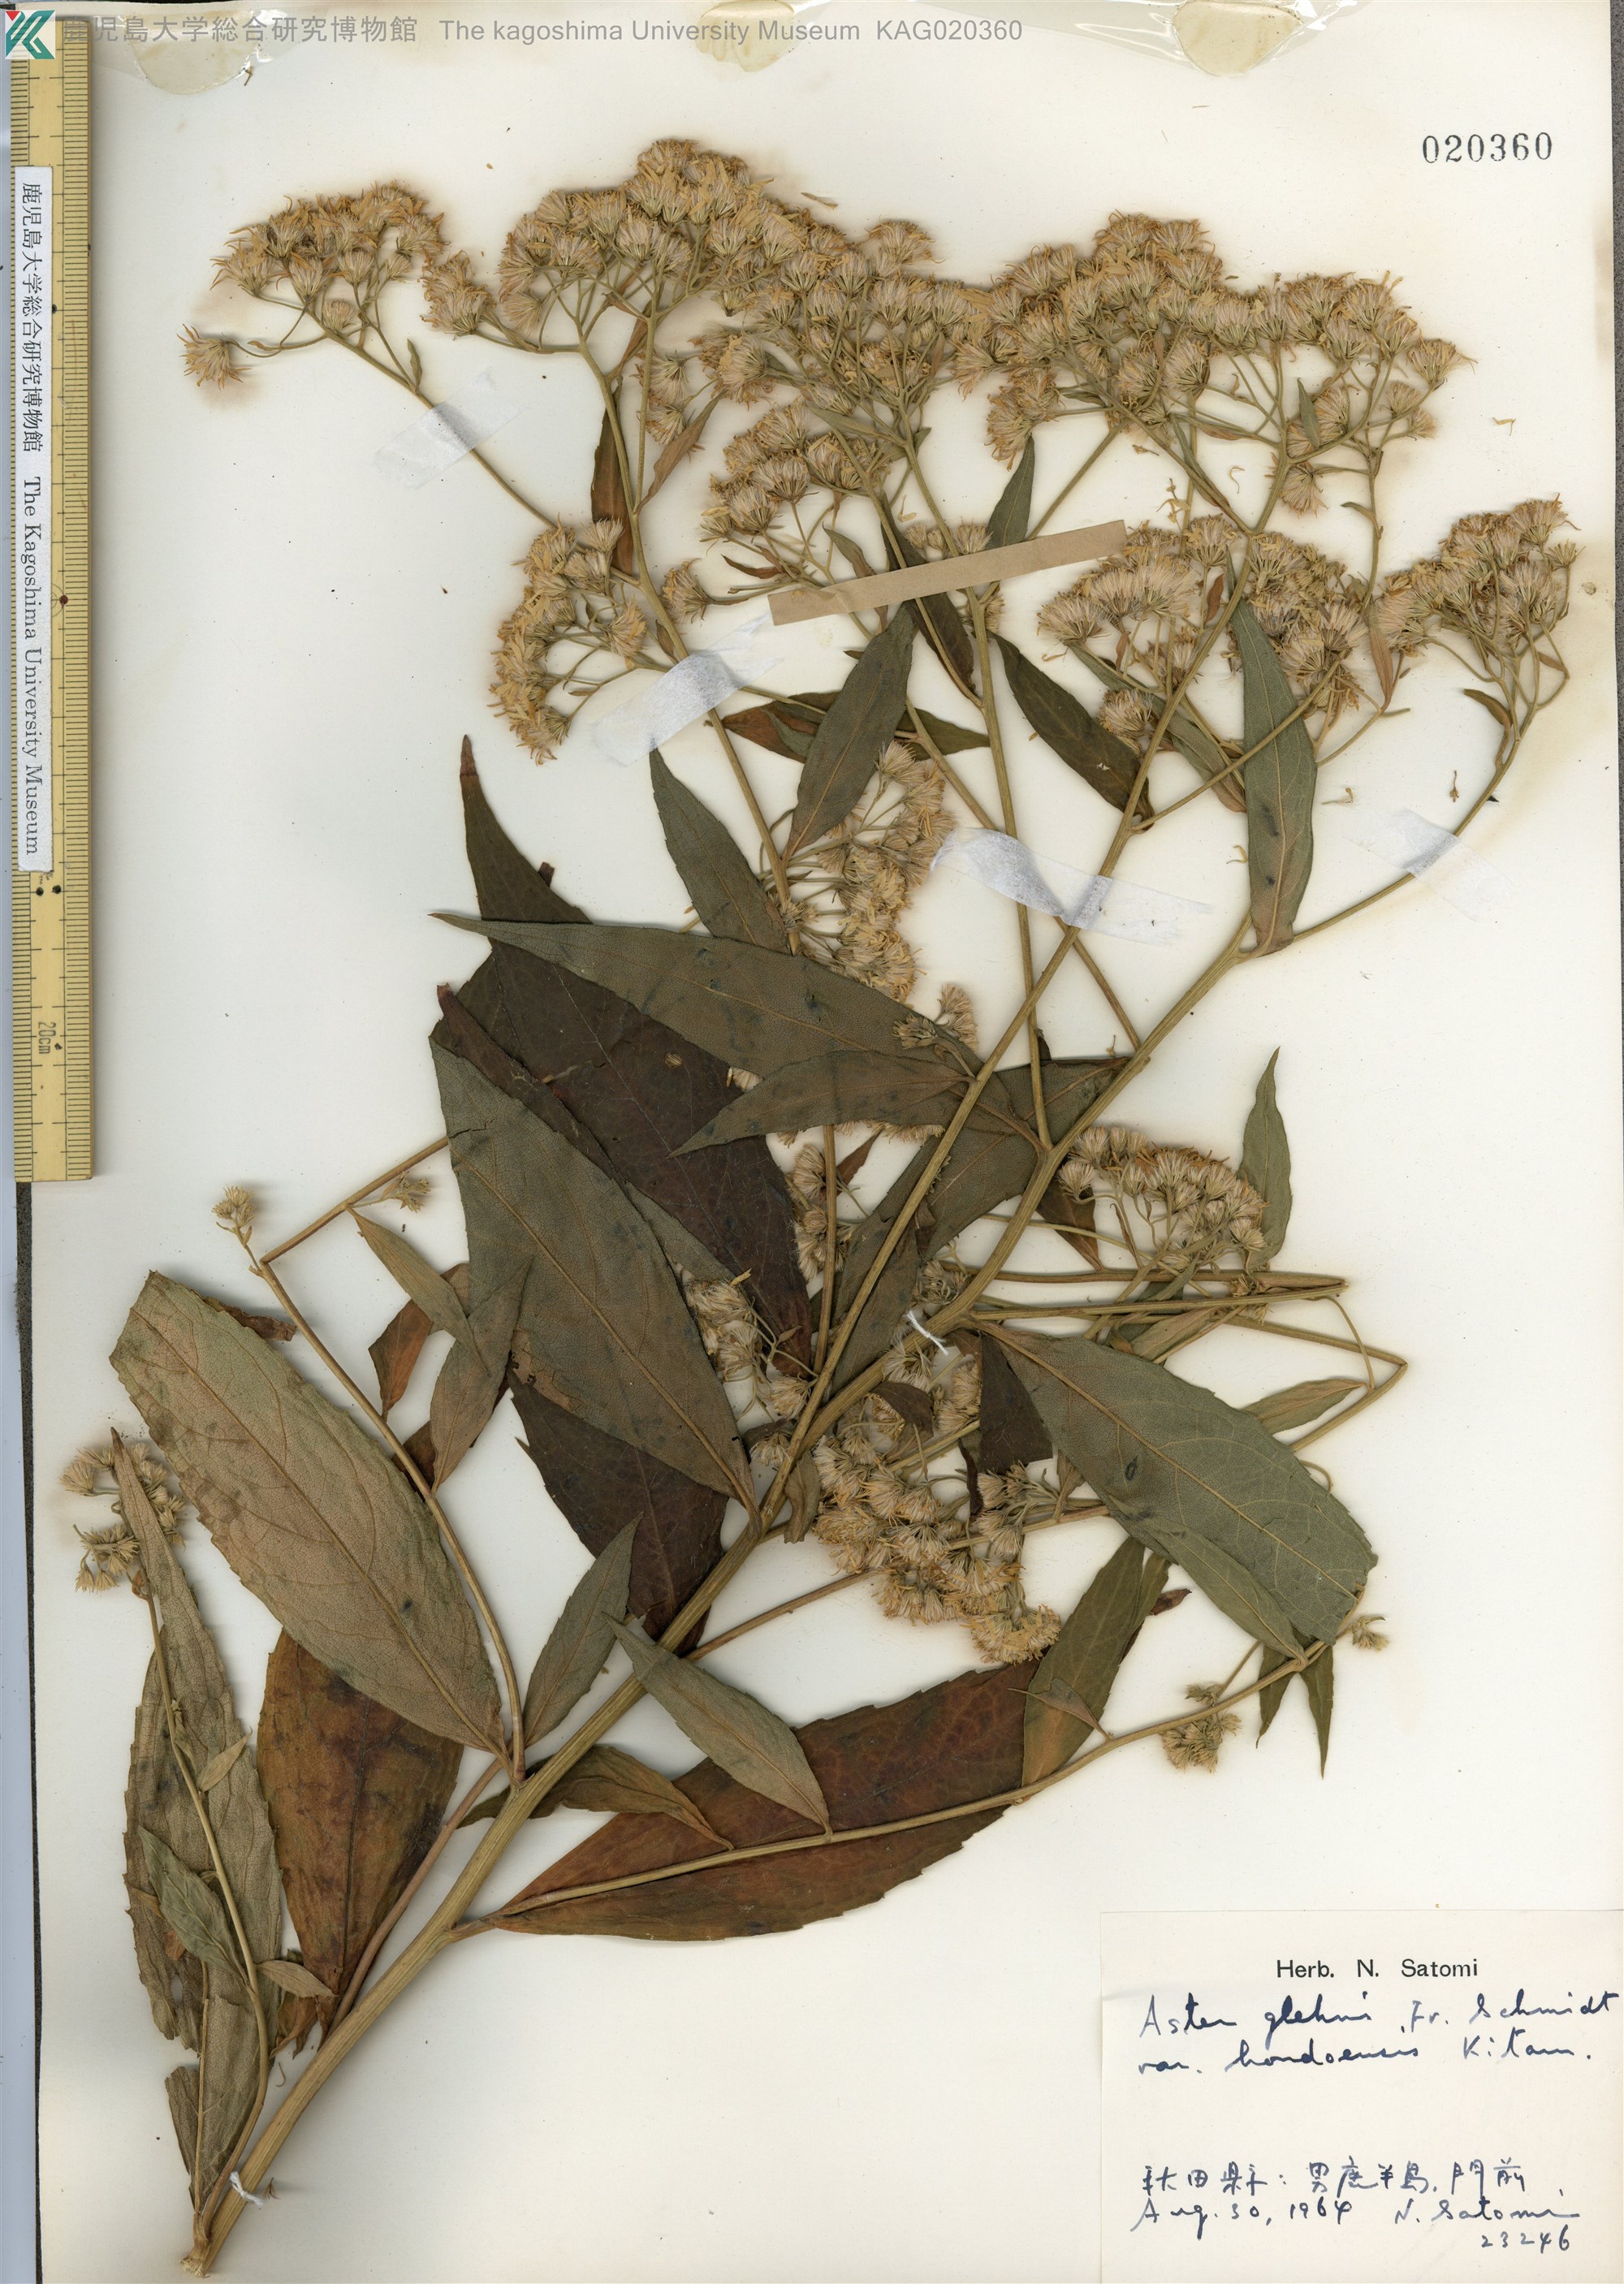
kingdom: Plantae
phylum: Tracheophyta
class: Magnoliopsida
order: Asterales
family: Asteraceae
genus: Kitamuria
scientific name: Kitamuria glehnii
